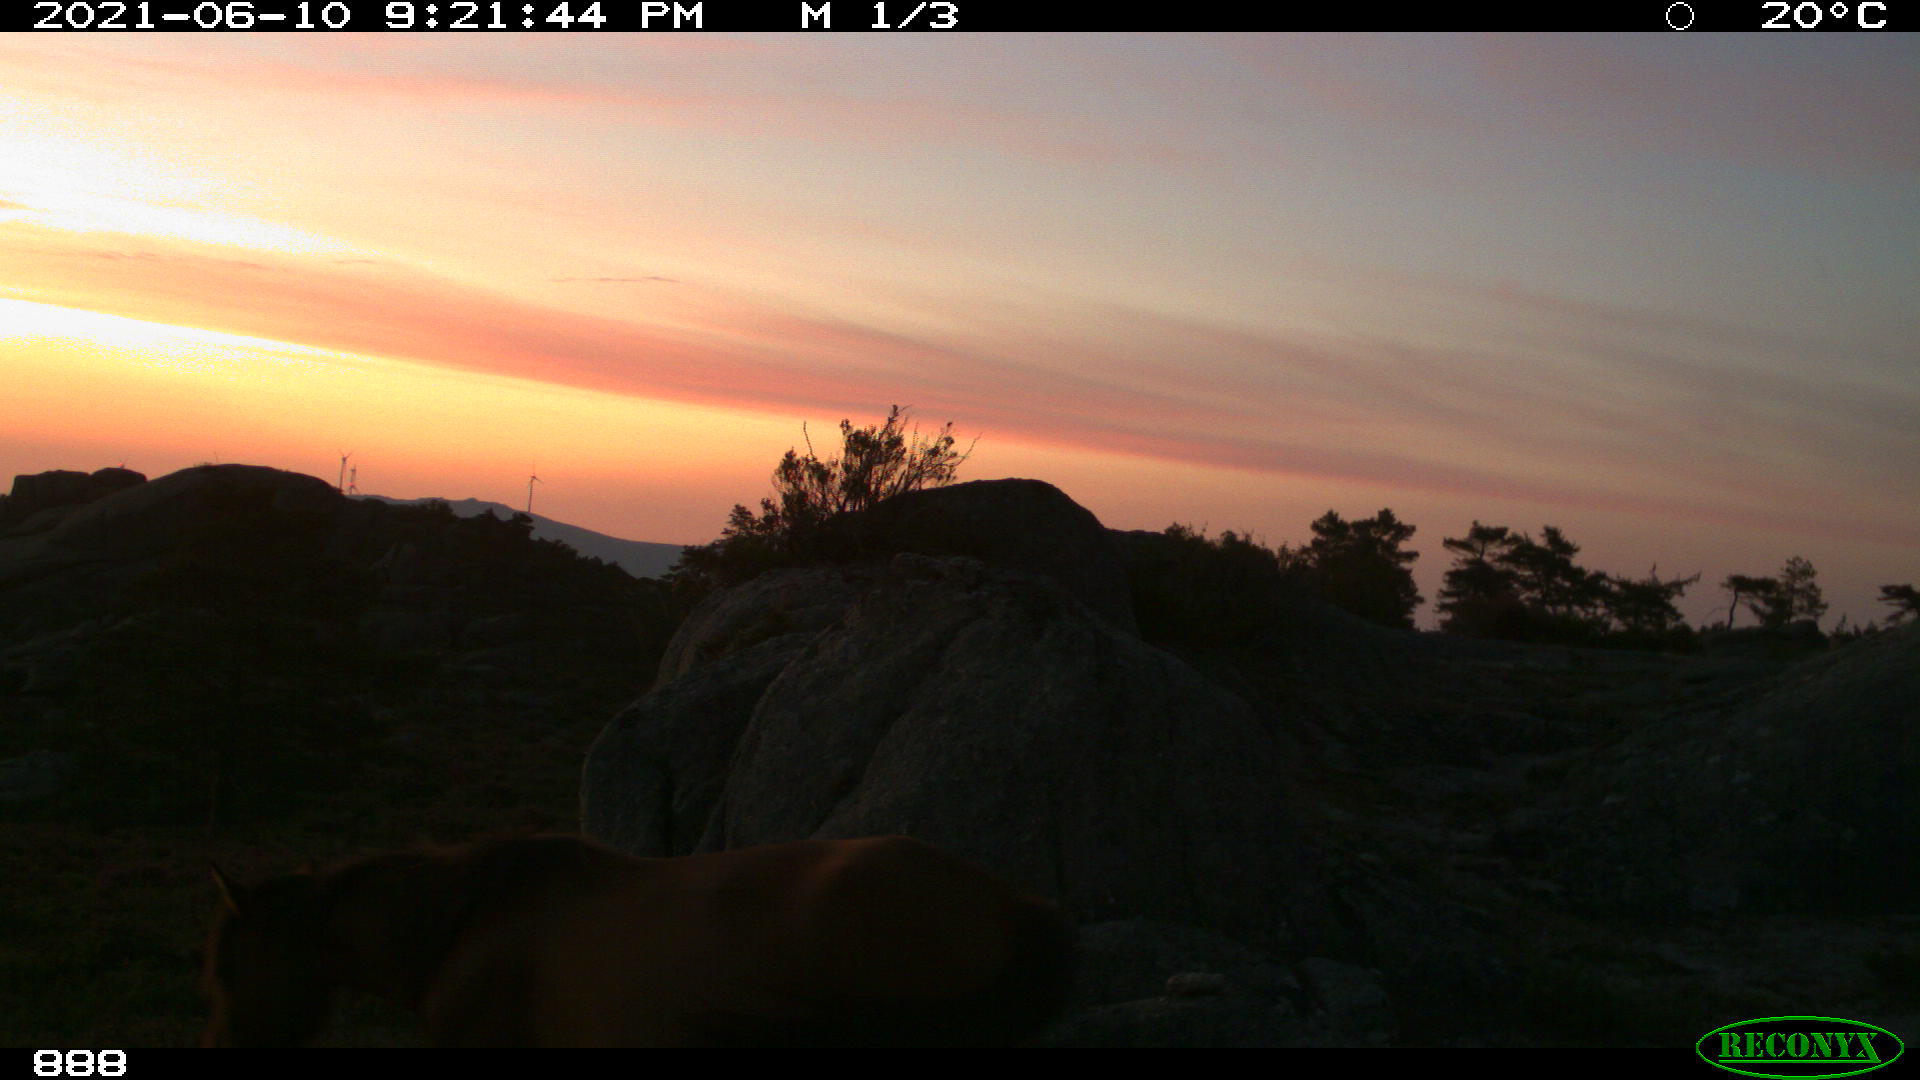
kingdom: Animalia
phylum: Chordata
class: Mammalia
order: Perissodactyla
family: Equidae
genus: Equus
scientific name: Equus caballus
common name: Horse
